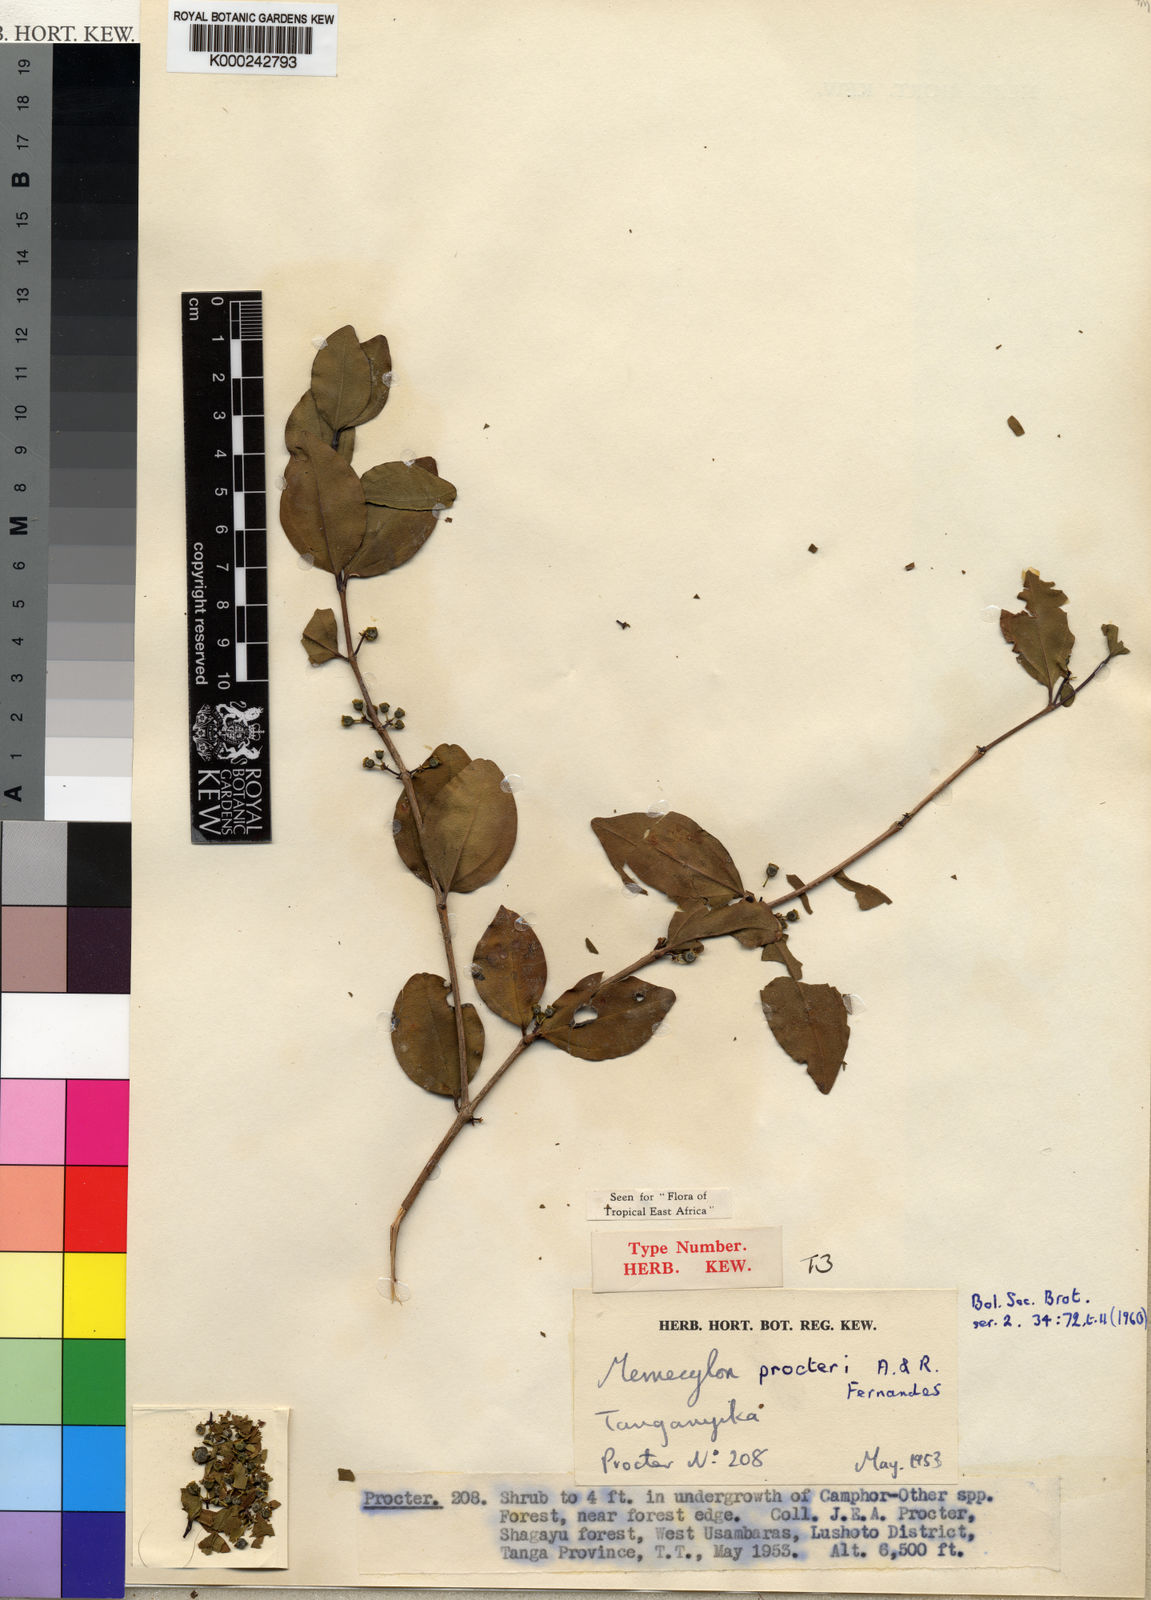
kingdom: Plantae
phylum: Tracheophyta
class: Magnoliopsida
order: Myrtales
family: Melastomataceae
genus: Lijndenia
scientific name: Lijndenia procteri
